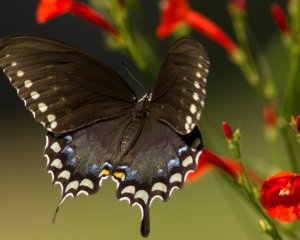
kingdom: Animalia
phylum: Arthropoda
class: Insecta
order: Lepidoptera
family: Papilionidae
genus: Pterourus
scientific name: Pterourus troilus
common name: Spicebush Swallowtail
